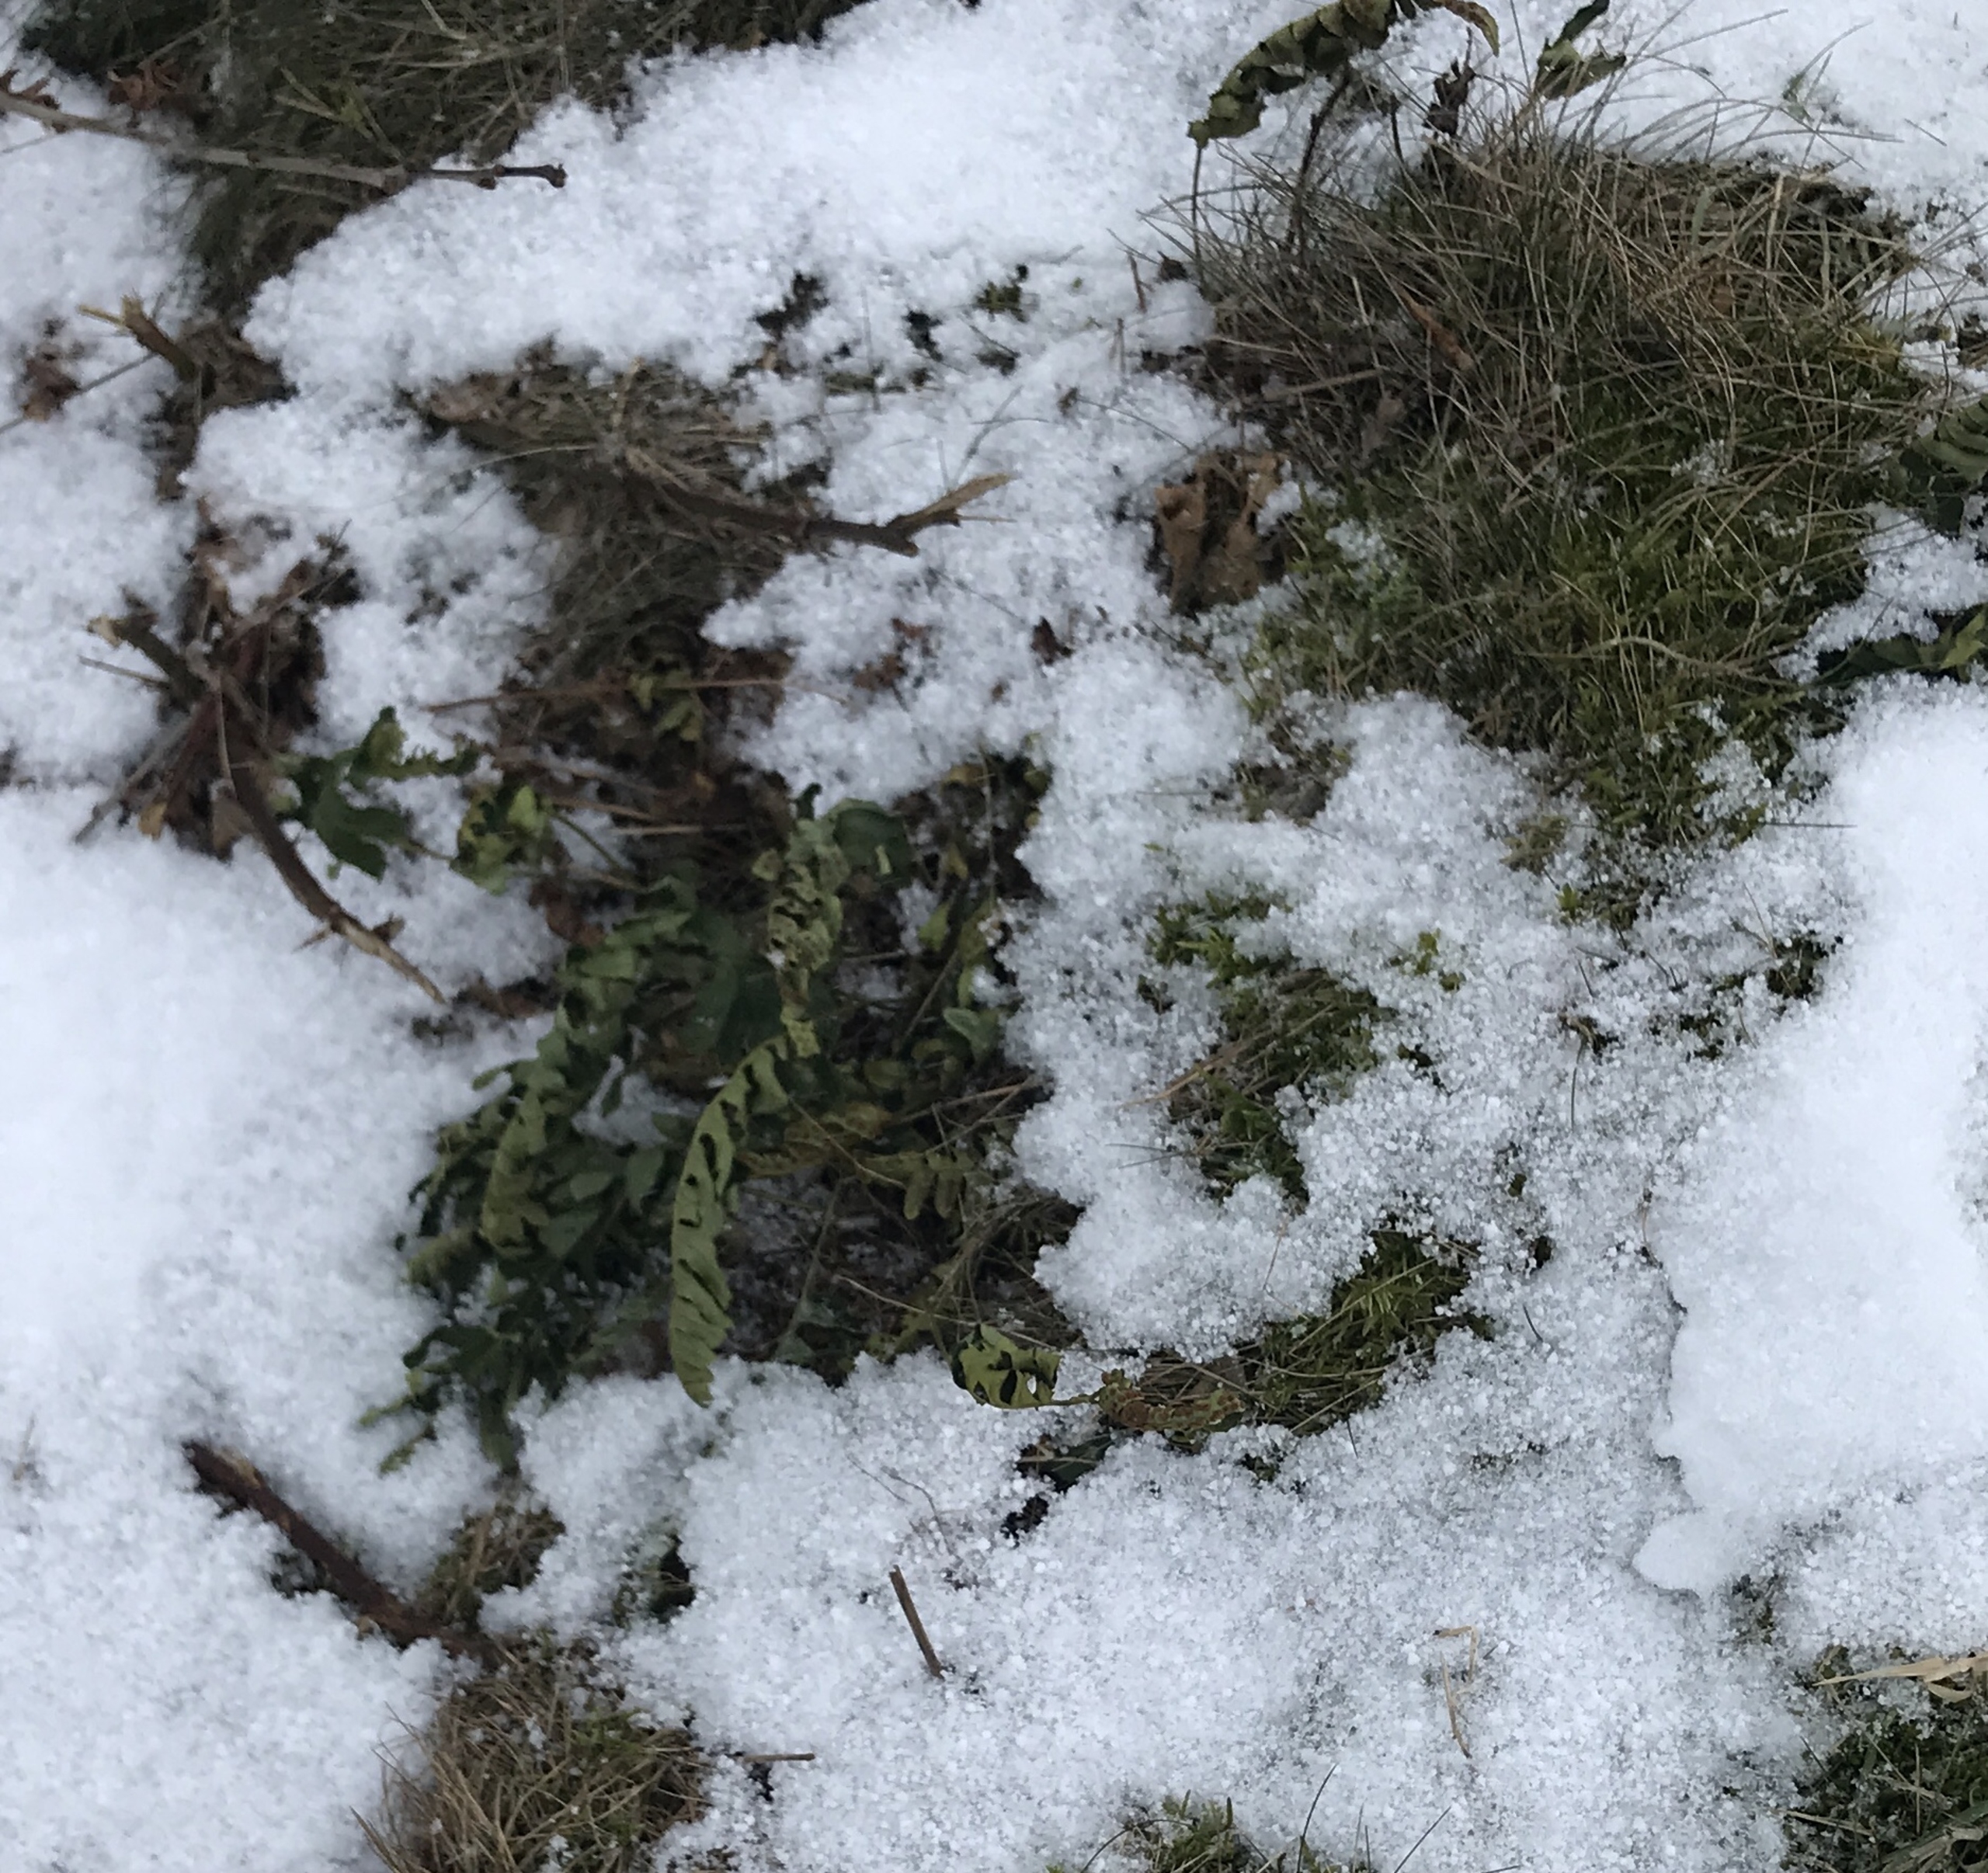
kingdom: Plantae
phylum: Tracheophyta
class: Polypodiopsida
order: Polypodiales
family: Polypodiaceae
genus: Polypodium
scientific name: Polypodium vulgare
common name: Almindelig engelsød
